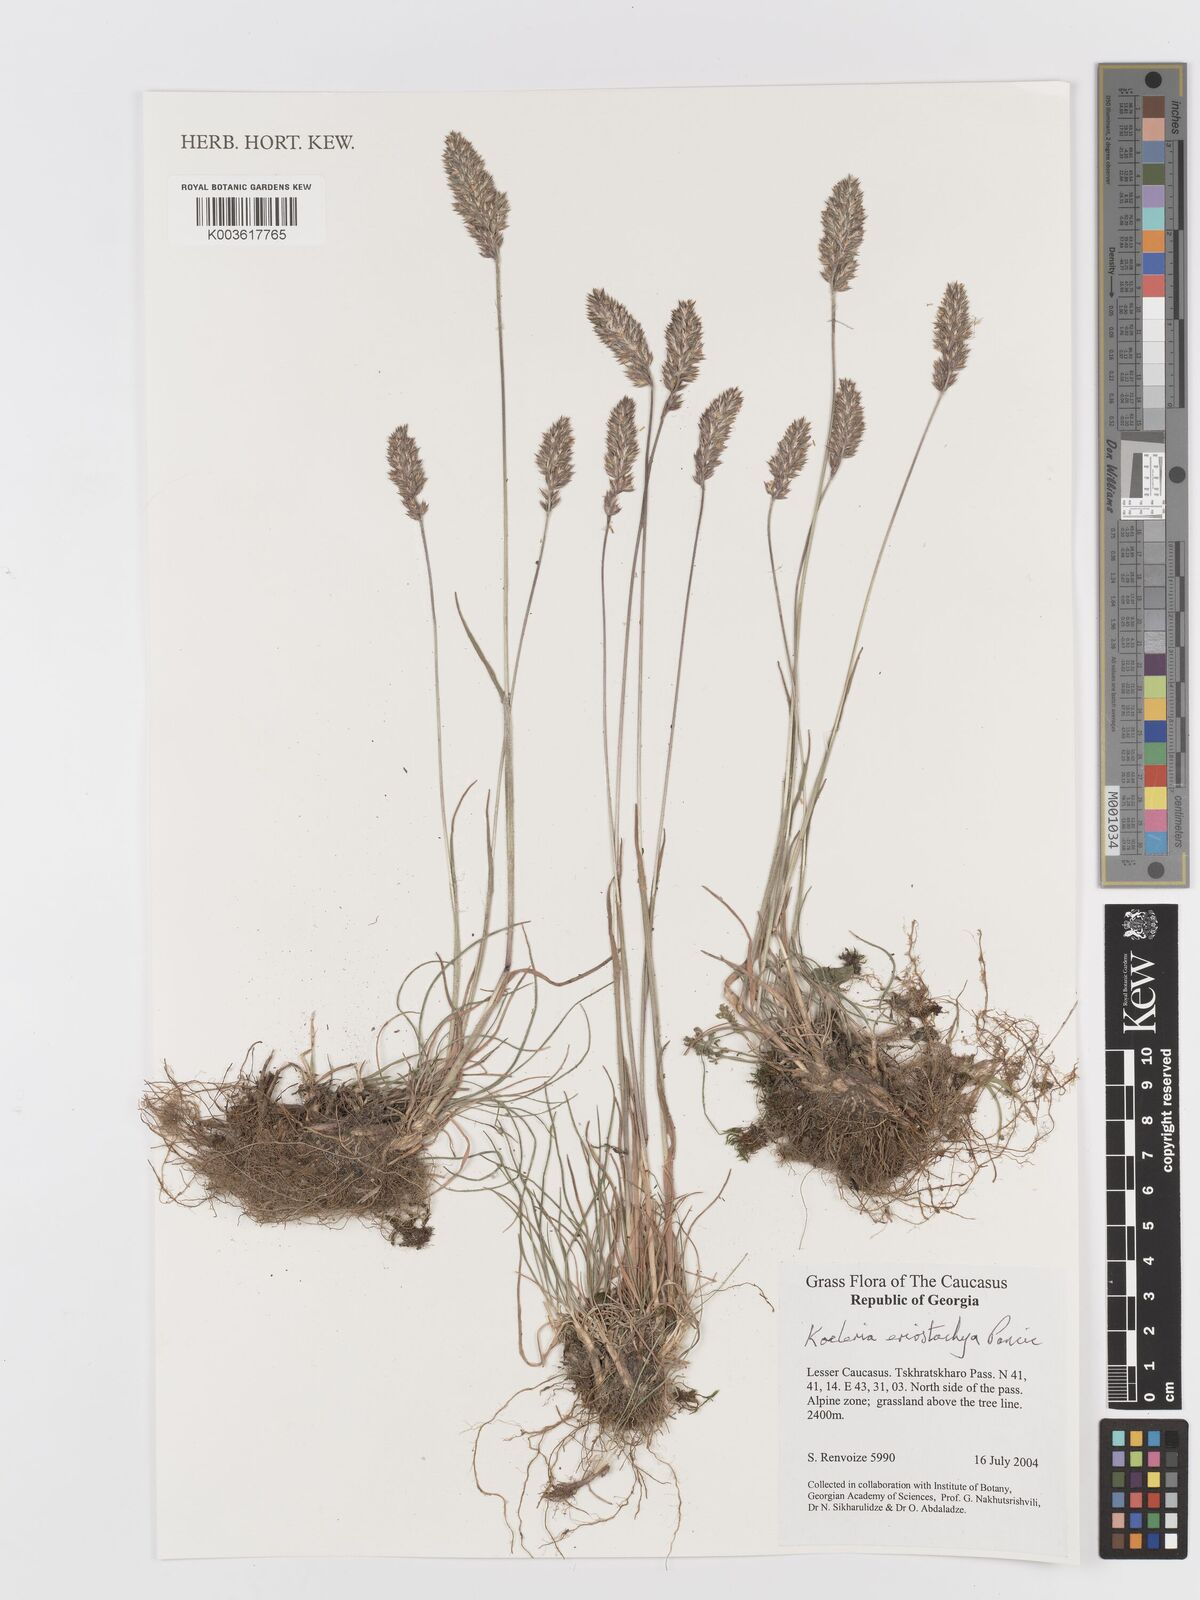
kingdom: Plantae
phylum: Tracheophyta
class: Liliopsida
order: Poales
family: Poaceae
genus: Koeleria
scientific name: Koeleria eriostachya
